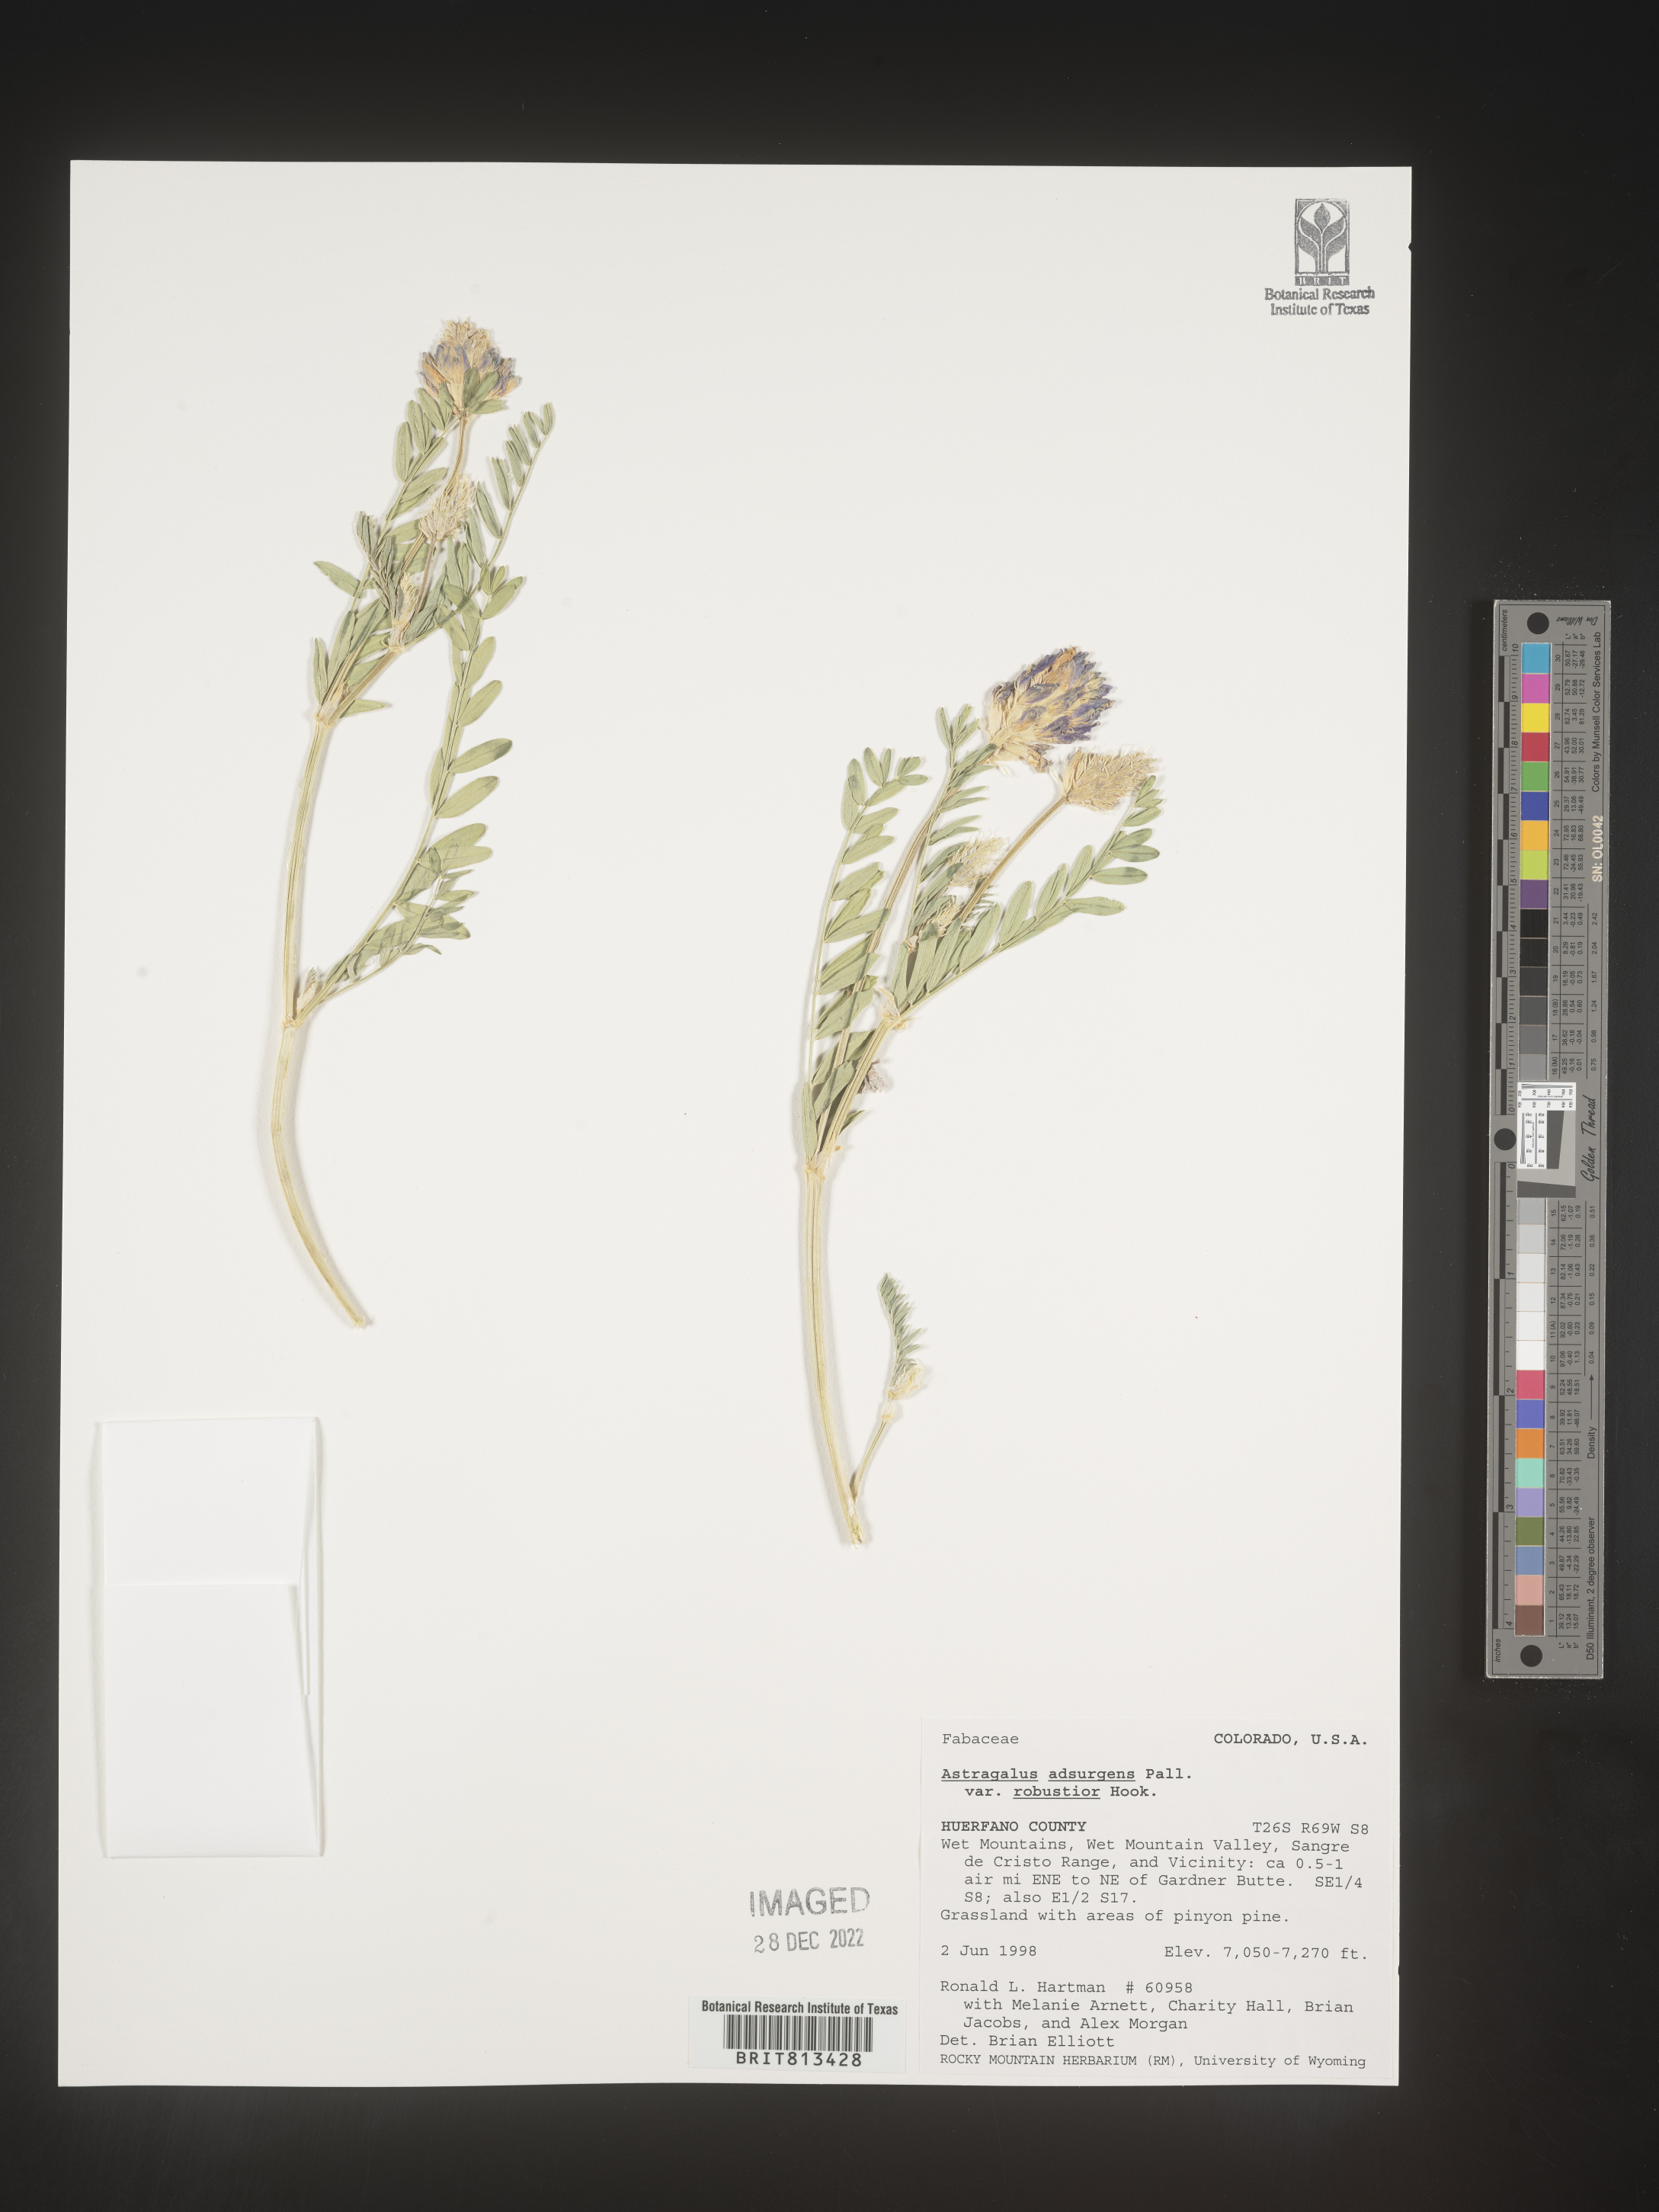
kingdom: Plantae
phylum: Tracheophyta
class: Magnoliopsida
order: Fabales
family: Fabaceae
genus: Astragalus
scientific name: Astragalus
